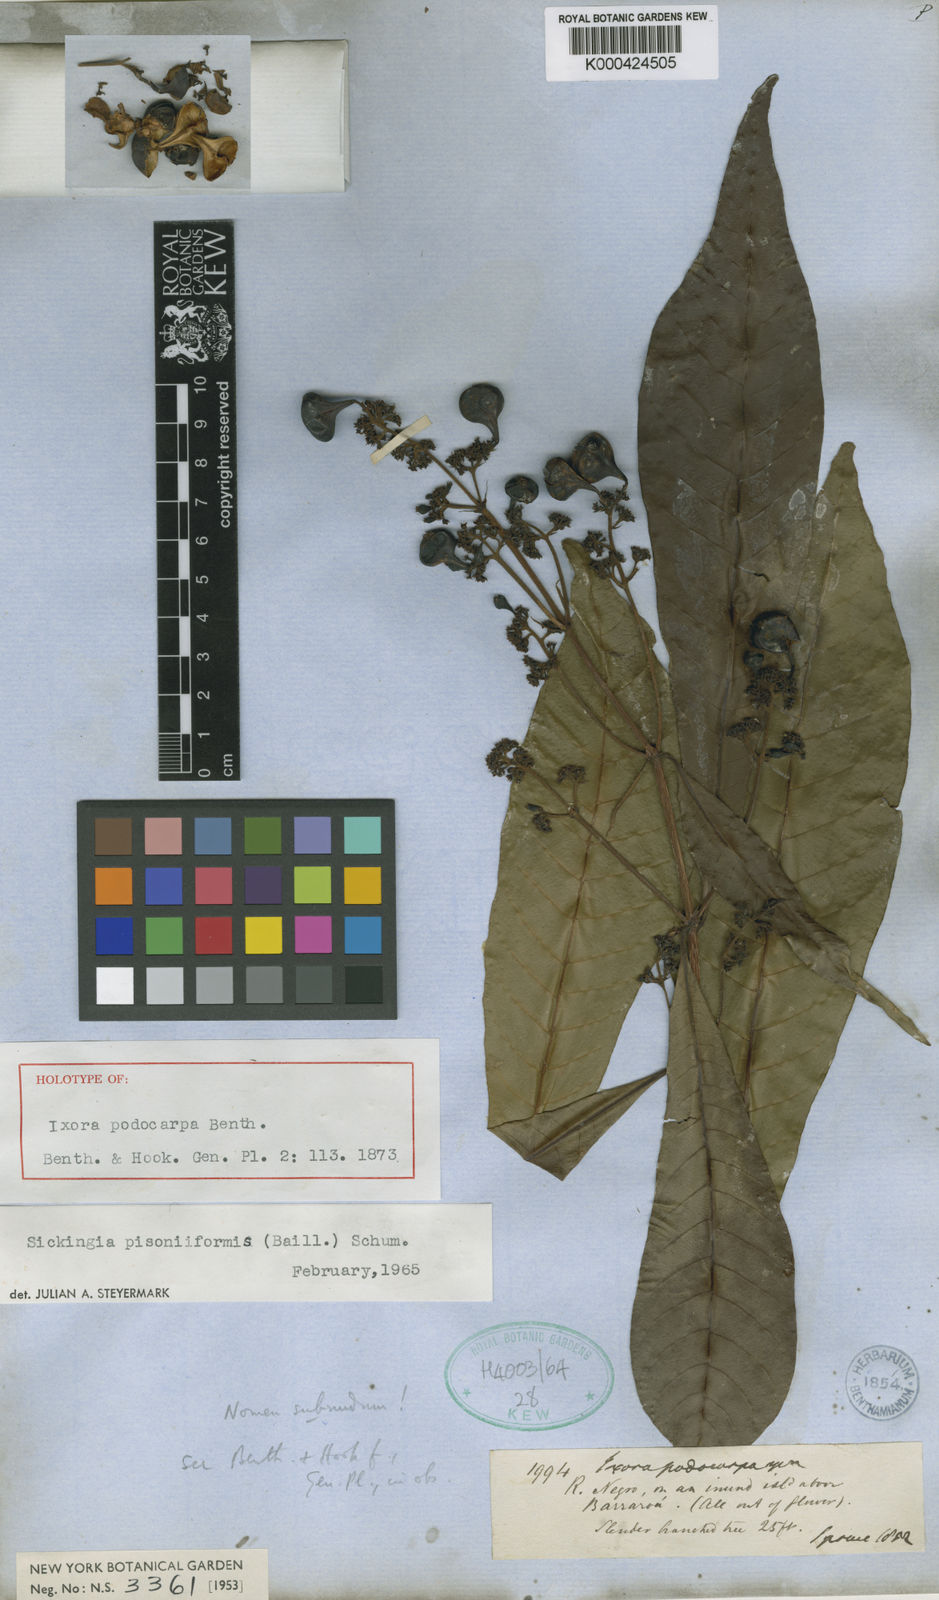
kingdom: Plantae
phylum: Tracheophyta
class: Magnoliopsida
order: Gentianales
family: Rubiaceae
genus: Simira
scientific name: Simira podocarpa
